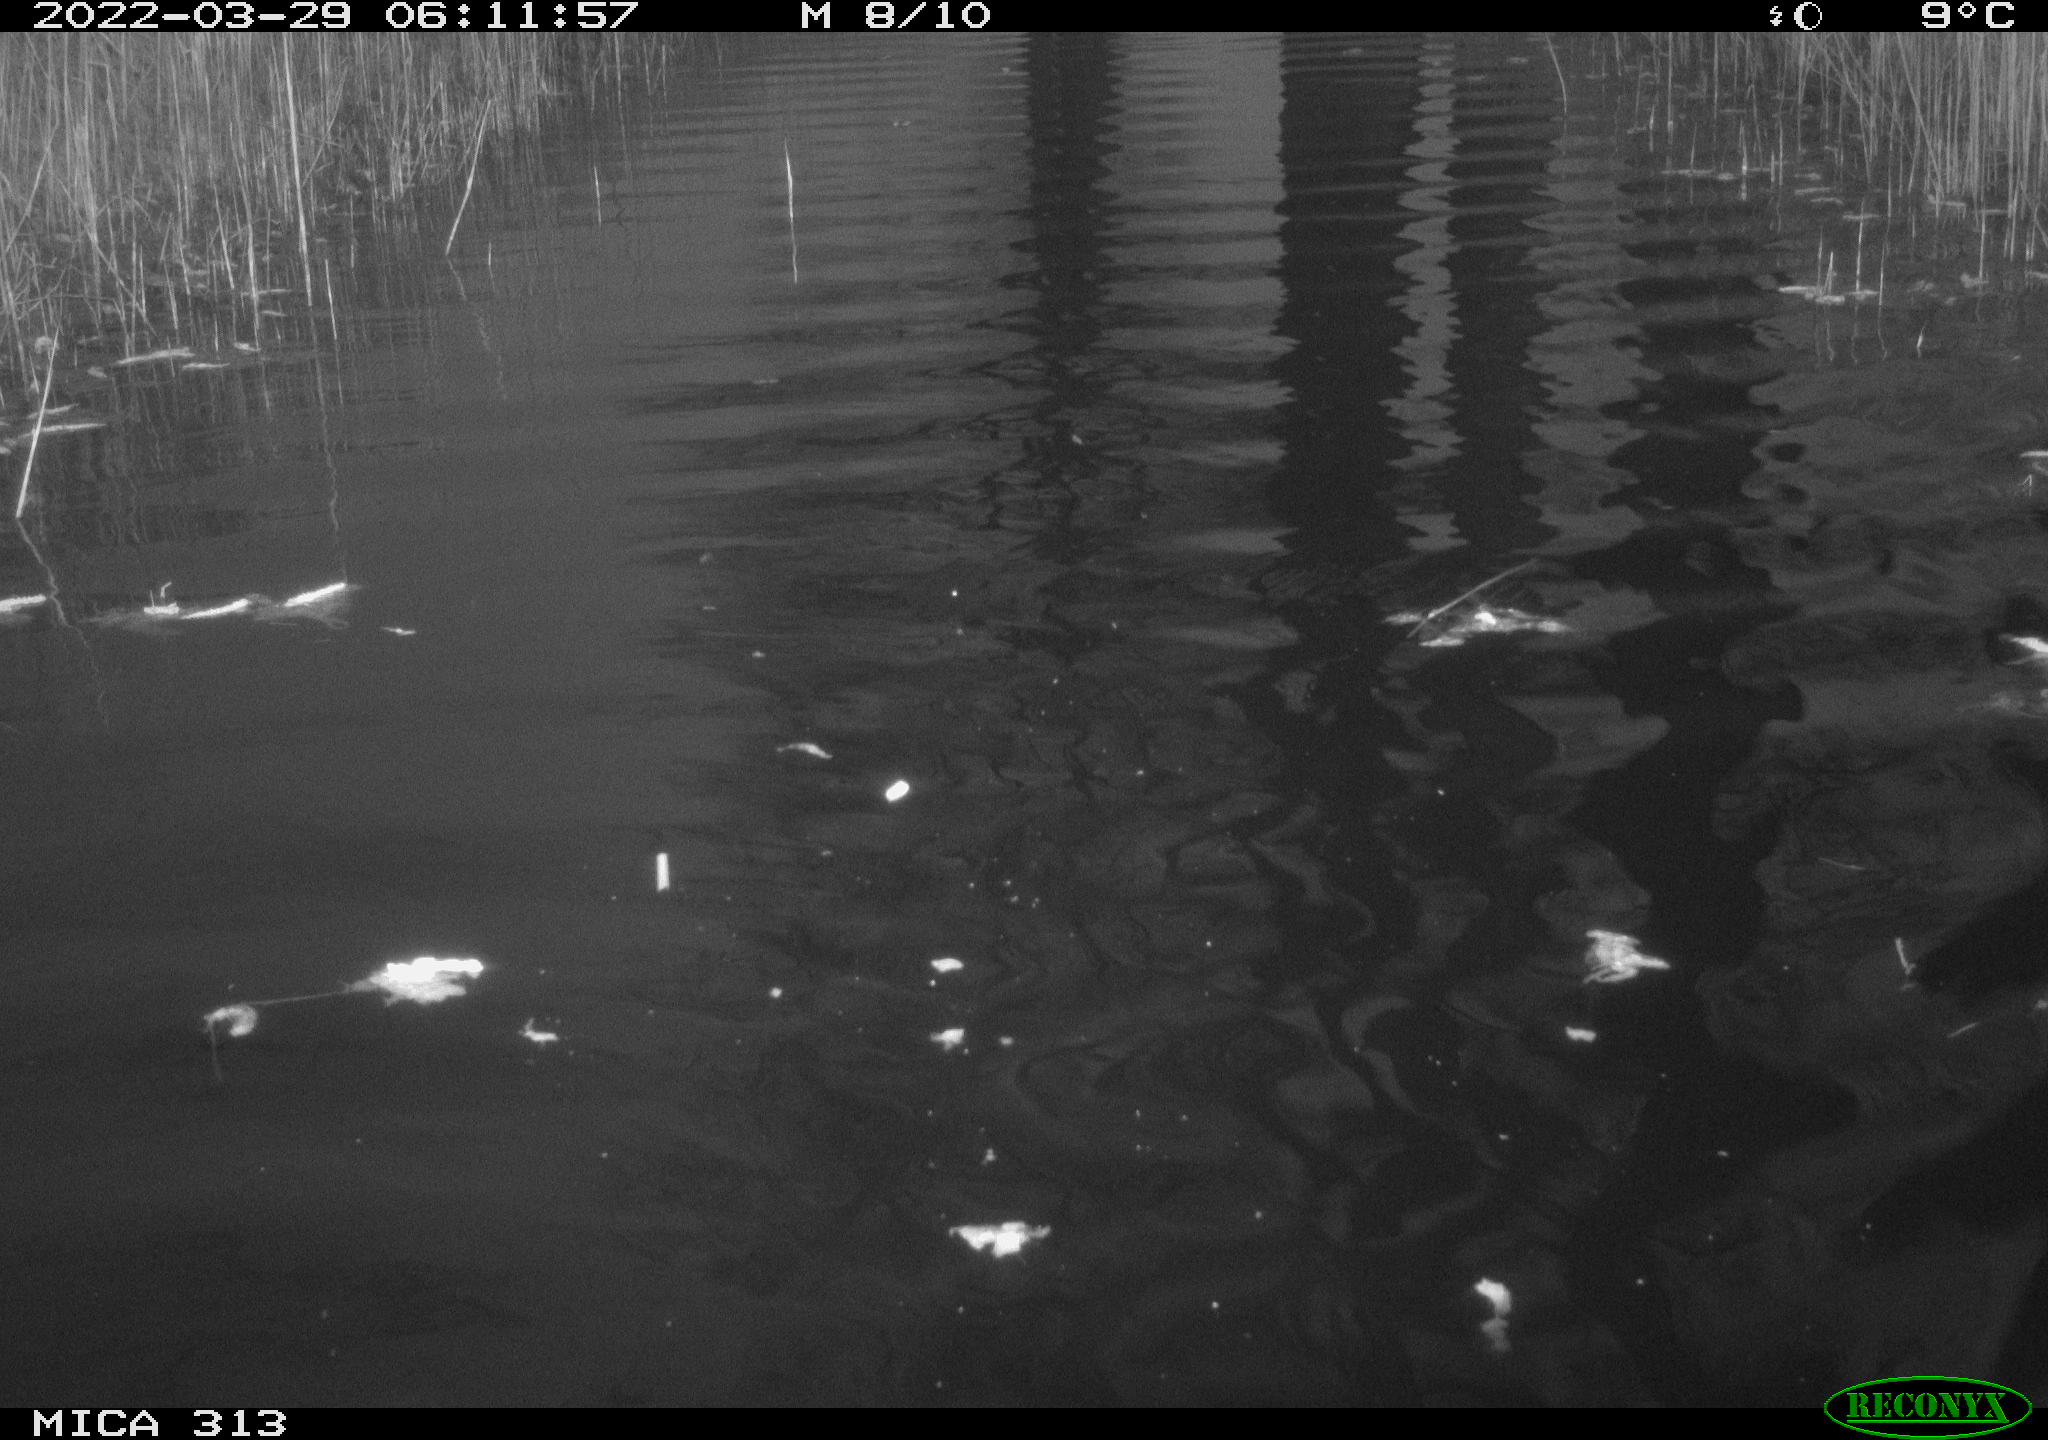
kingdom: Animalia
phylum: Chordata
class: Aves
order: Anseriformes
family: Anatidae
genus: Anas
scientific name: Anas platyrhynchos
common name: Mallard
